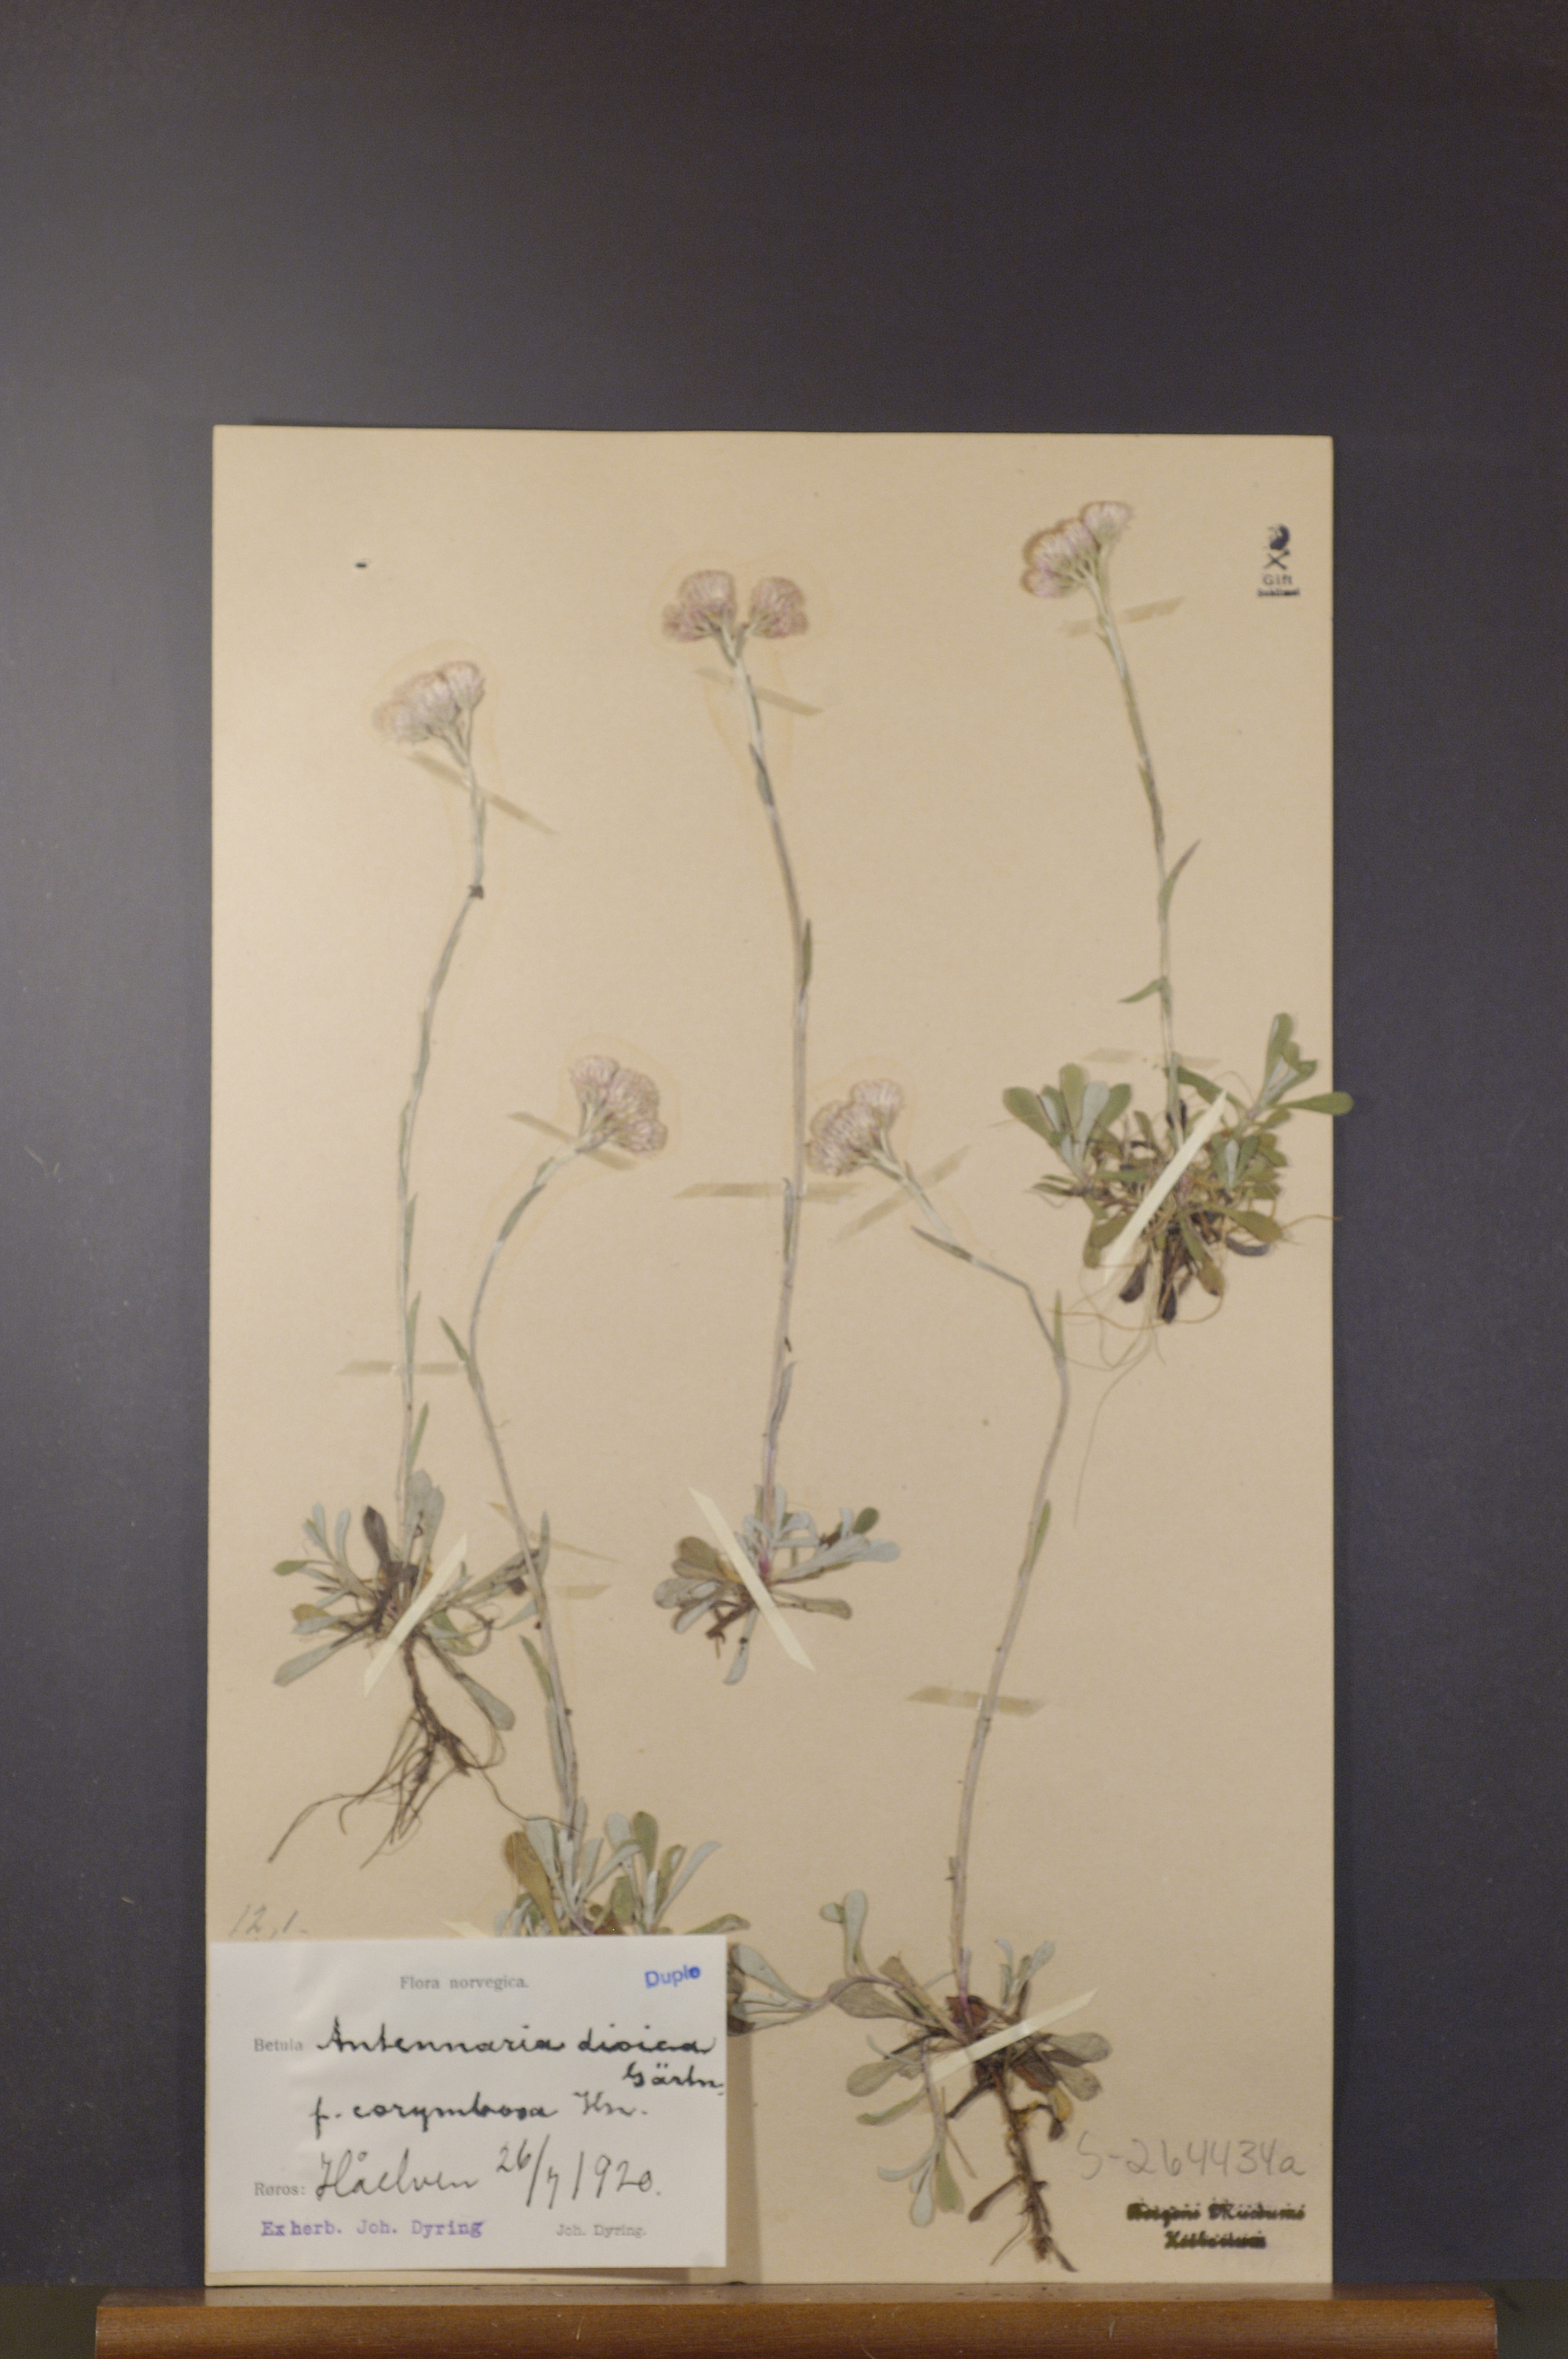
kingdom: Plantae
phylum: Tracheophyta
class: Magnoliopsida
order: Asterales
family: Asteraceae
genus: Antennaria
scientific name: Antennaria dioica
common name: Mountain everlasting
